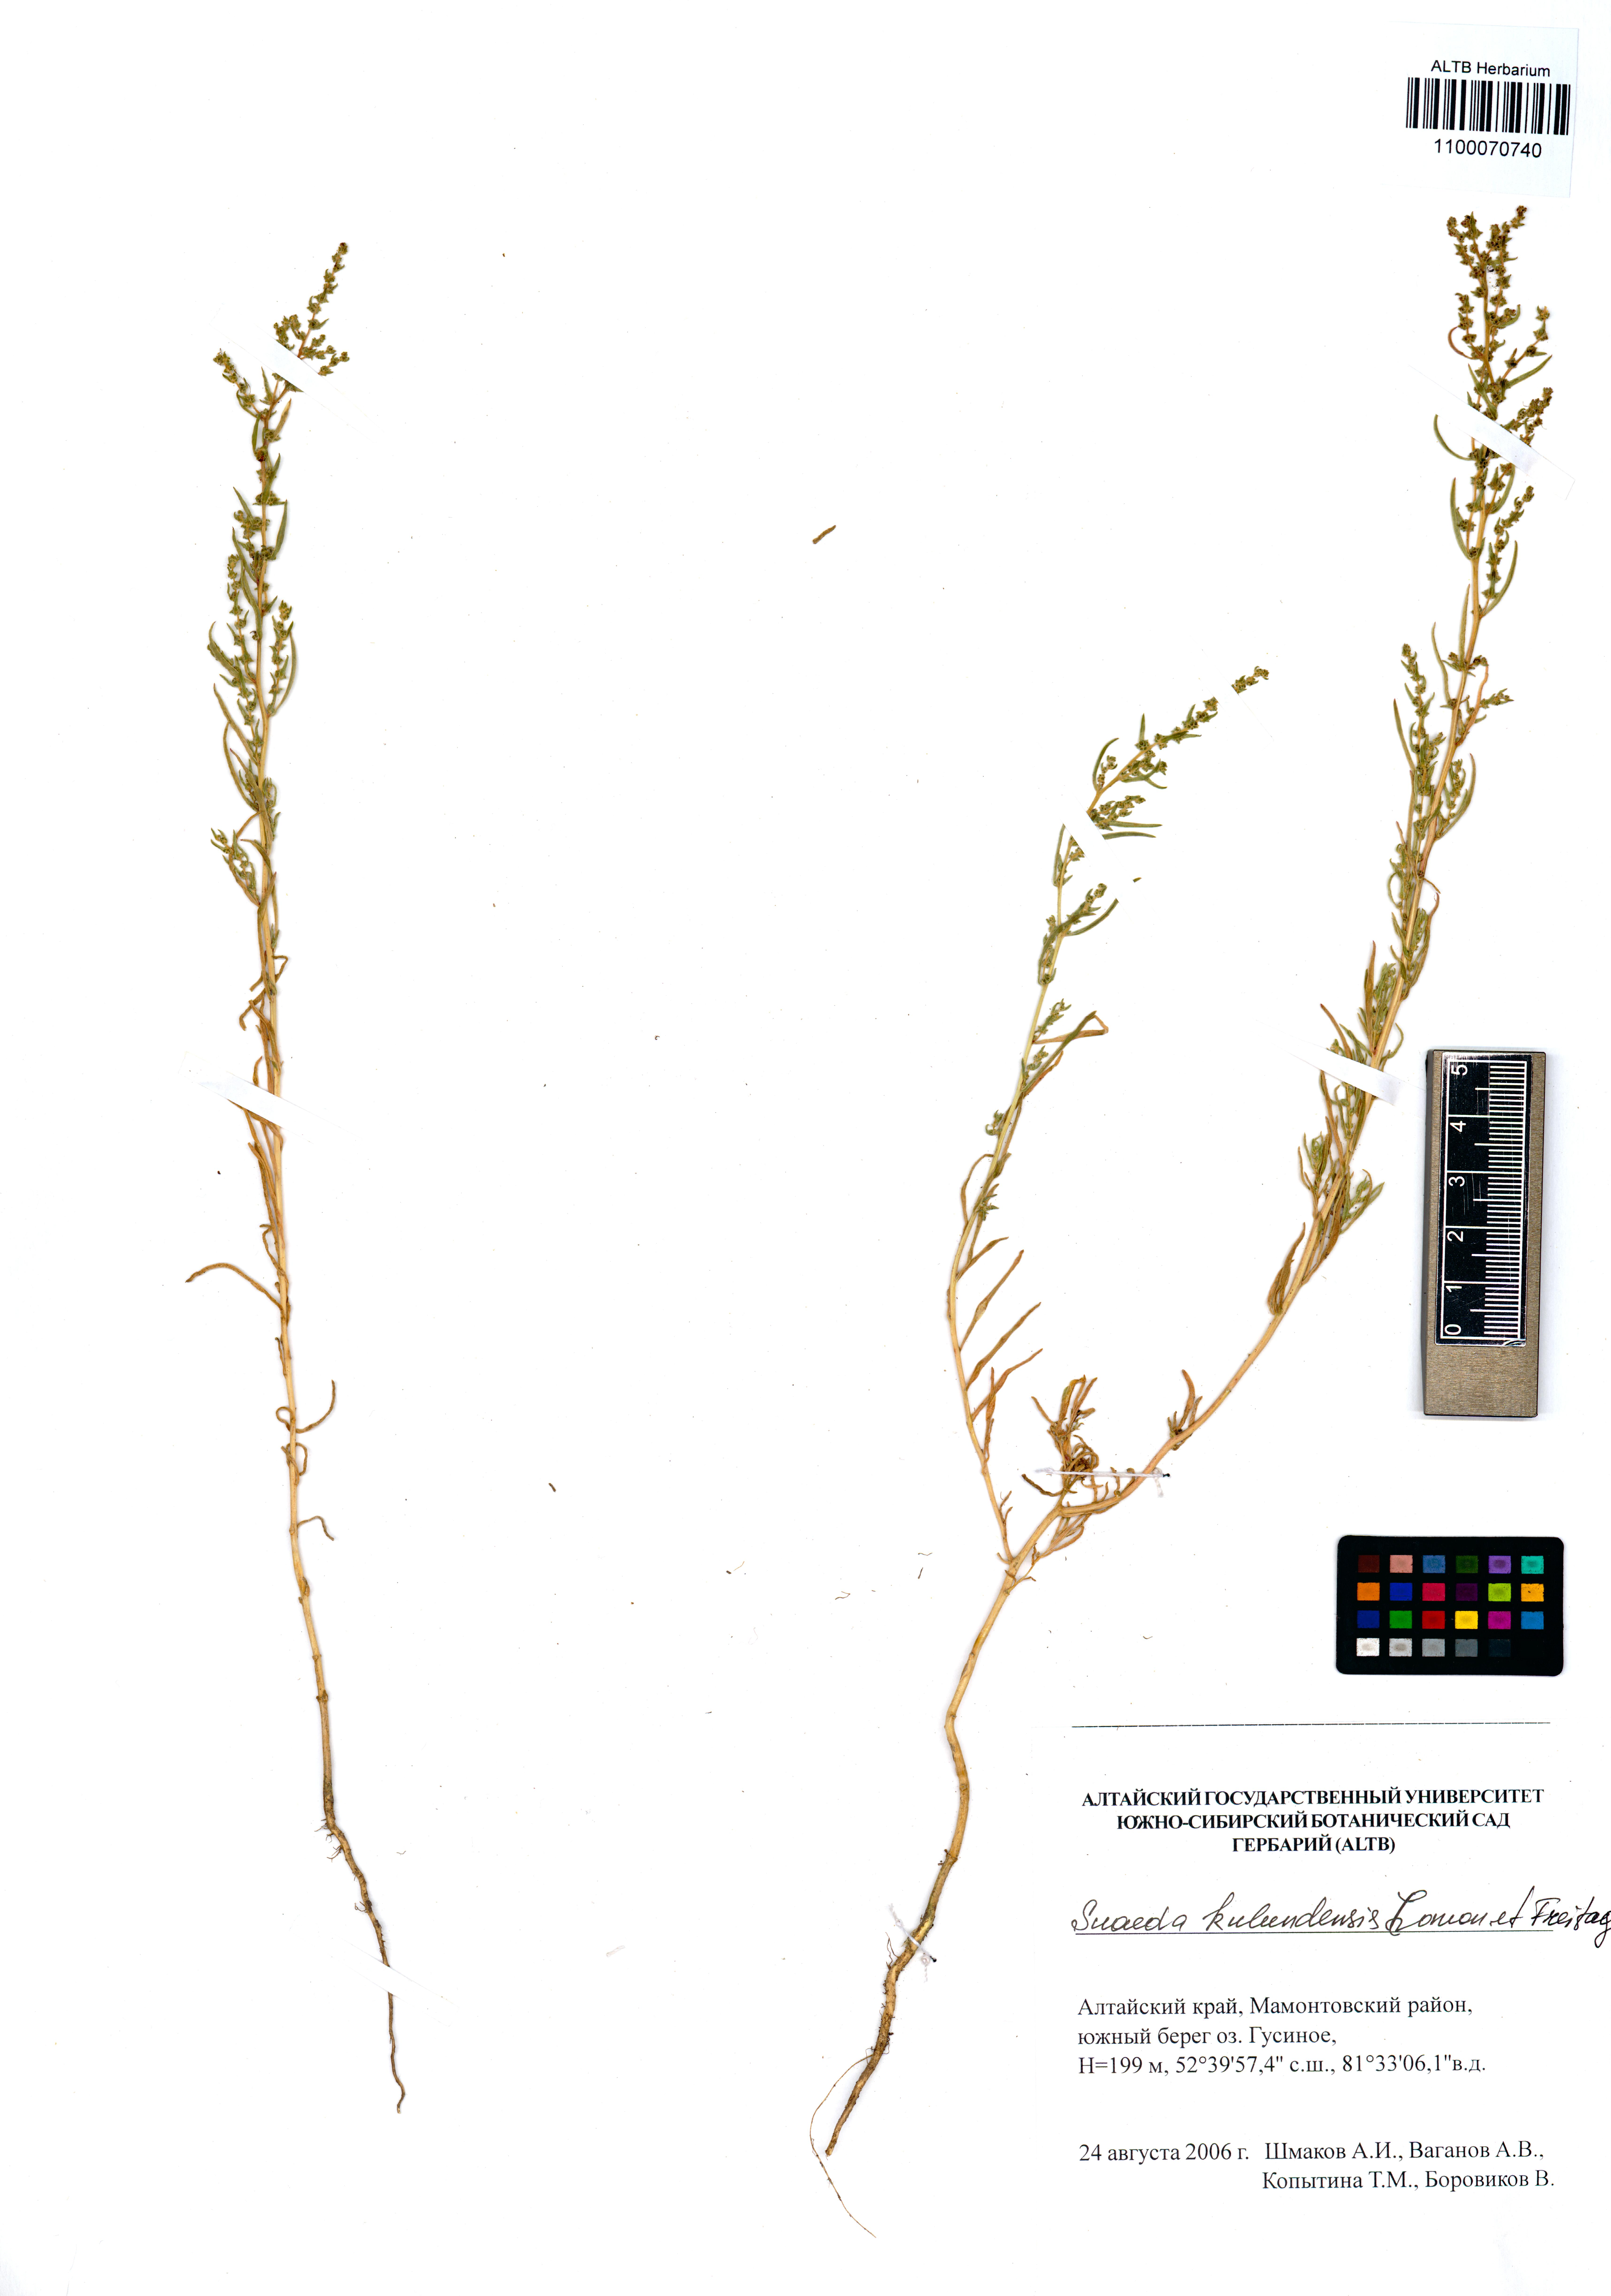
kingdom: Plantae
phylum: Tracheophyta
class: Magnoliopsida
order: Caryophyllales
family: Amaranthaceae
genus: Suaeda
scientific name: Suaeda kulundensis
